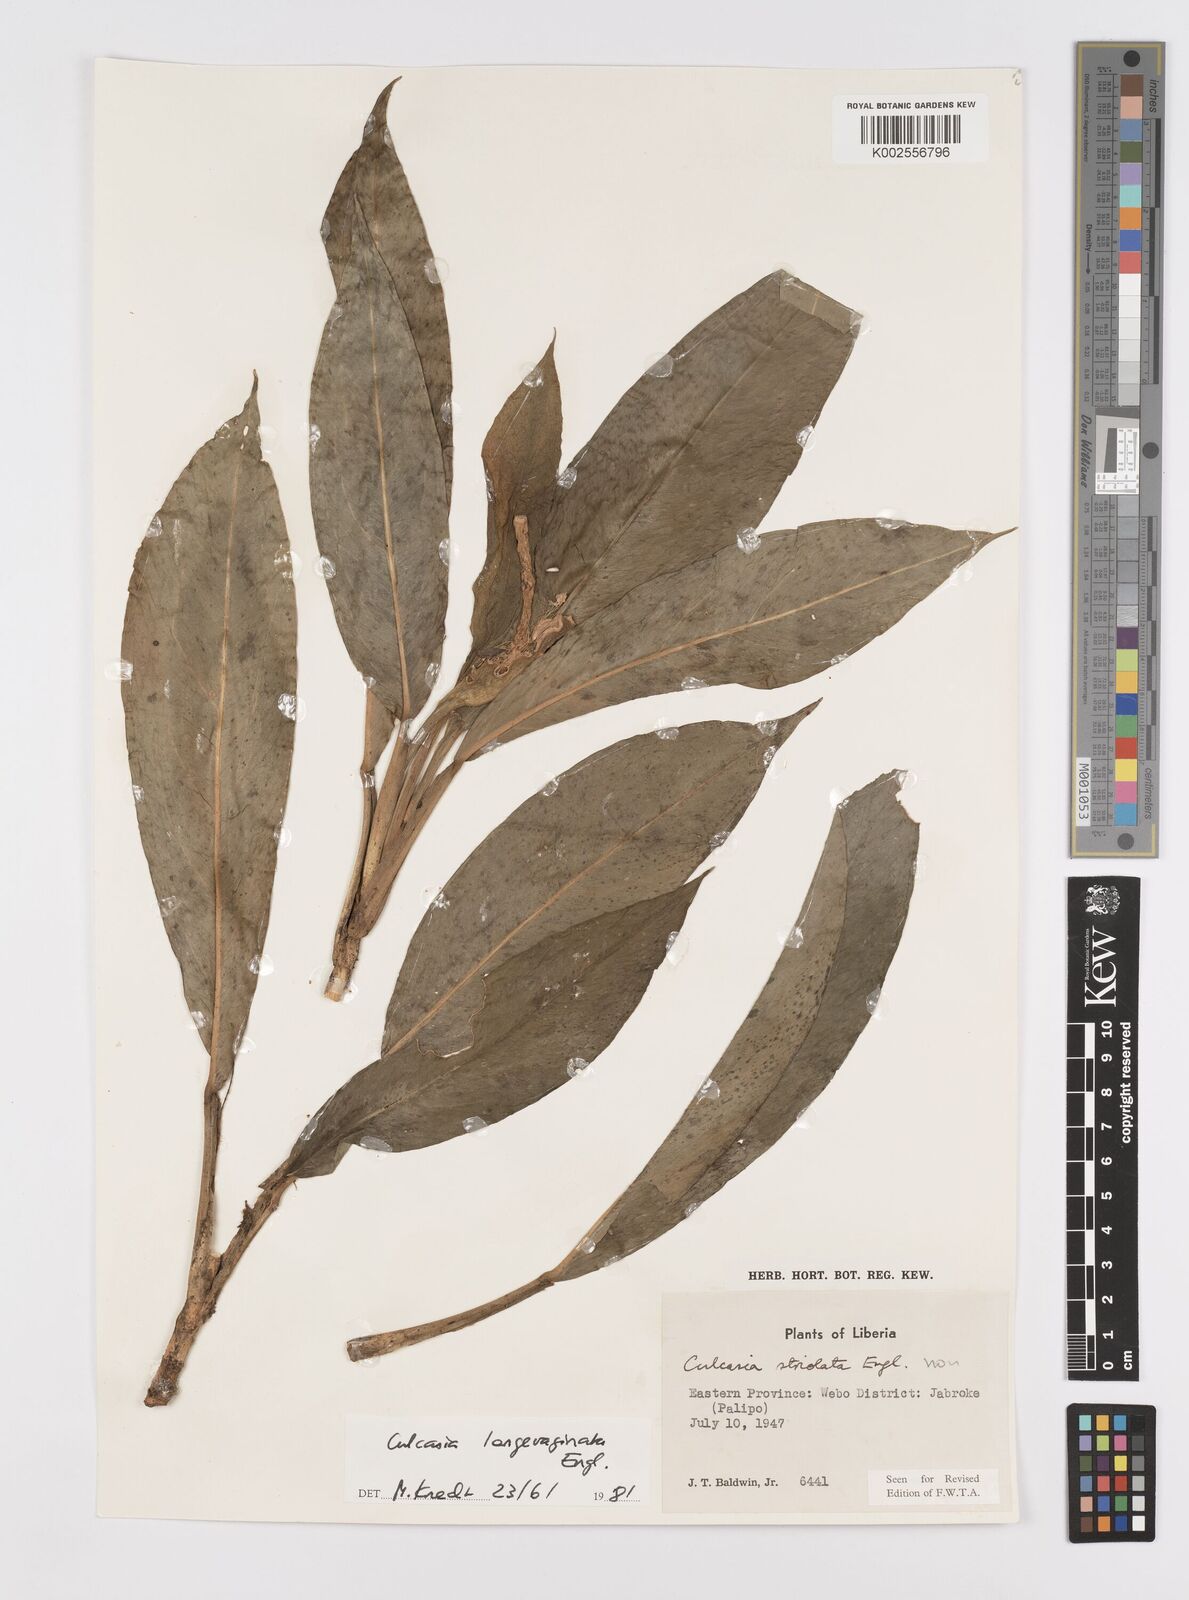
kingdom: Plantae
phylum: Tracheophyta
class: Liliopsida
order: Alismatales
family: Araceae
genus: Culcasia
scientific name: Culcasia striolata
